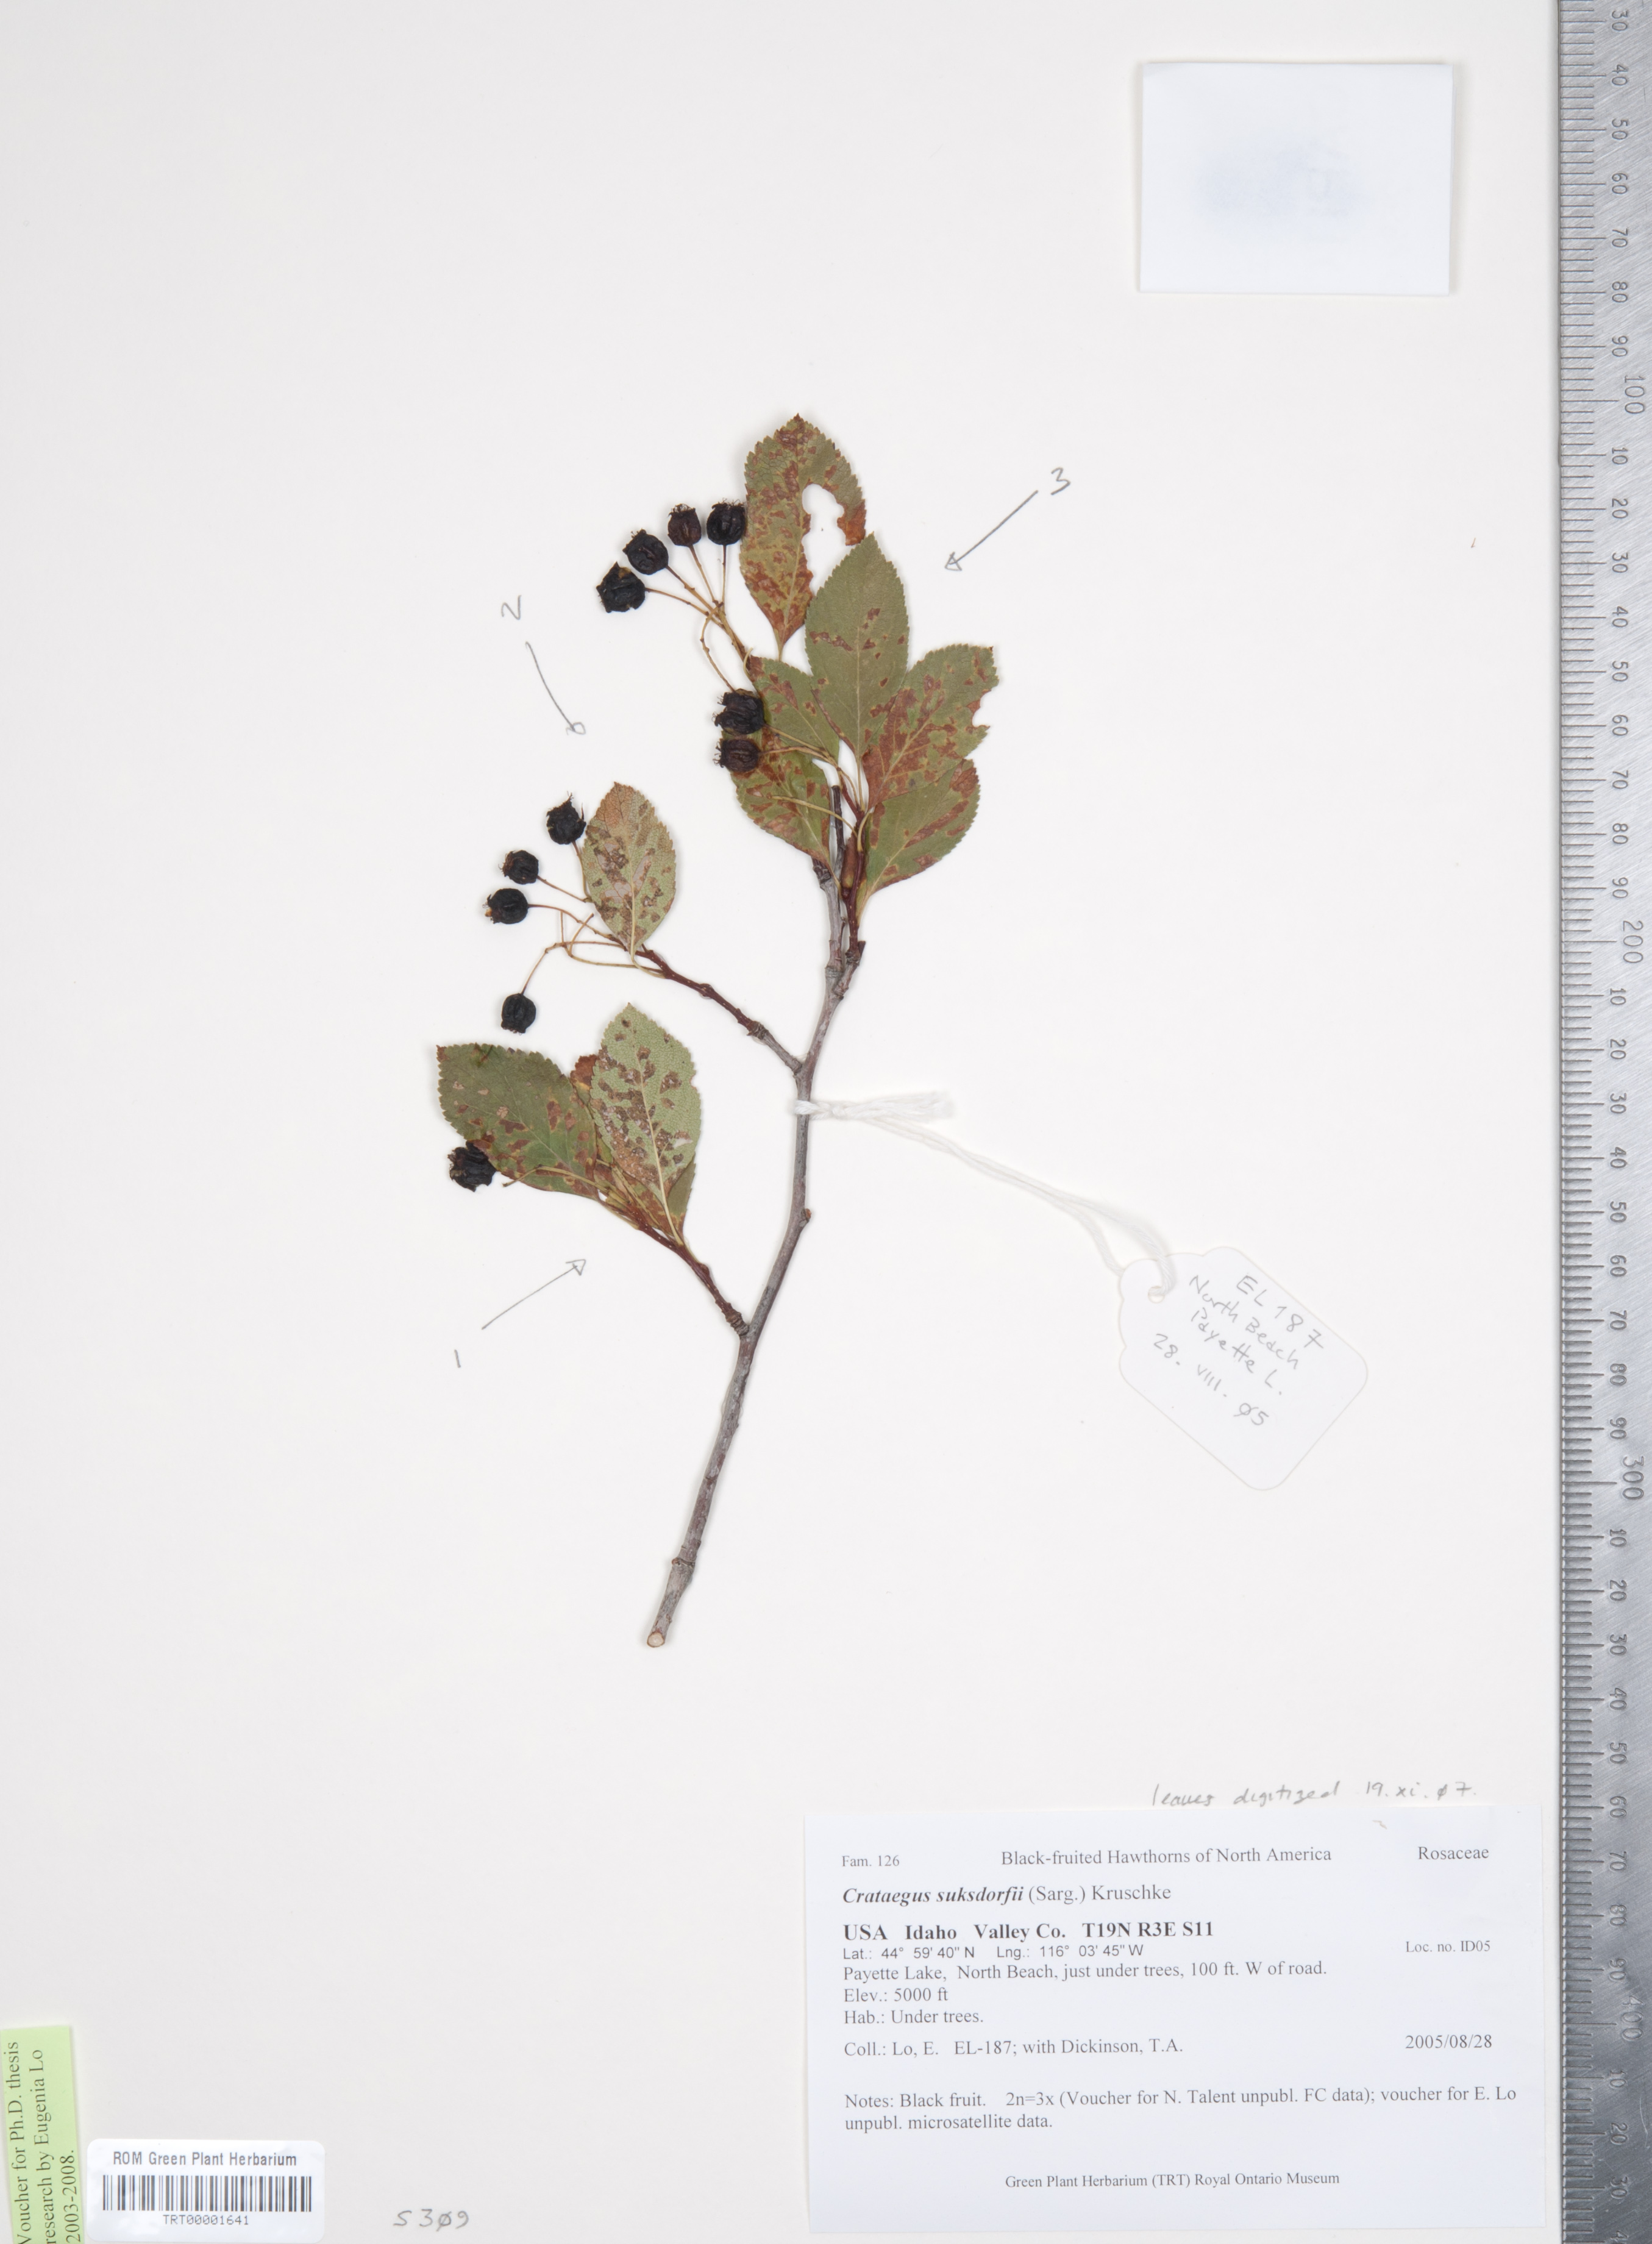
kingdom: Plantae
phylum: Tracheophyta
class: Magnoliopsida
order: Rosales
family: Rosaceae
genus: Crataegus
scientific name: Crataegus gaylussacia
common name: Huckleberry hawthorn
